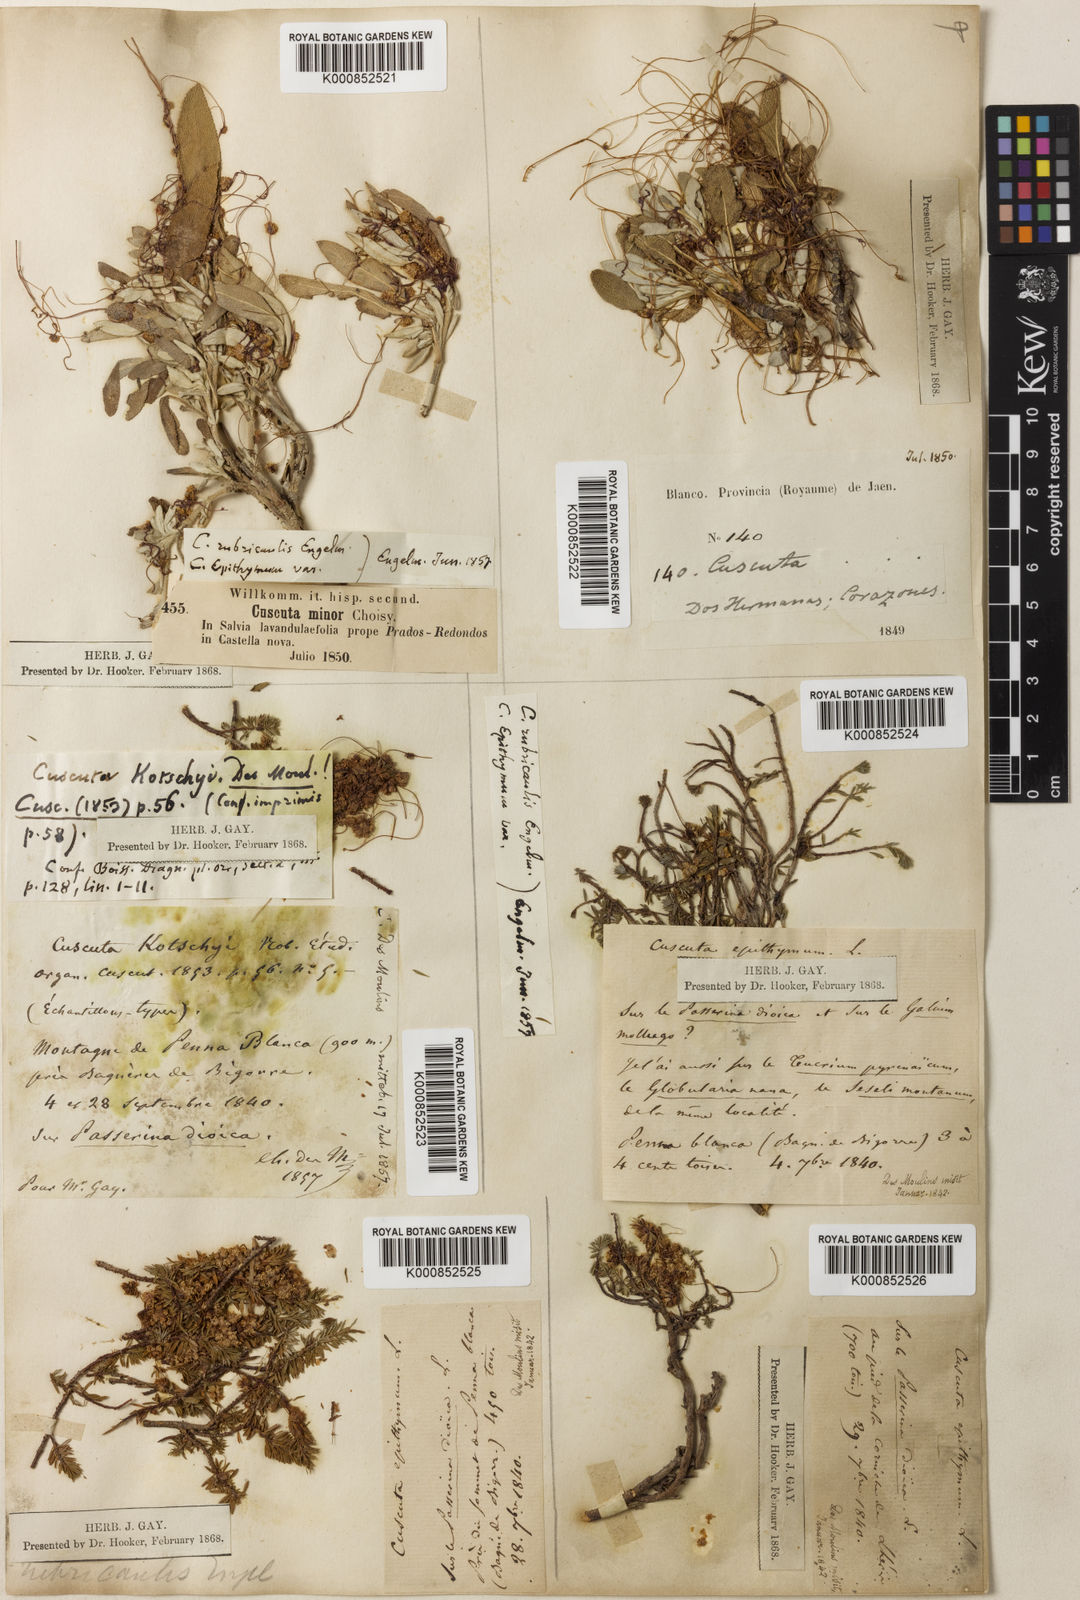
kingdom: Plantae
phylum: Tracheophyta
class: Magnoliopsida
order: Solanales
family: Convolvulaceae
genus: Cuscuta
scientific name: Cuscuta epithymum
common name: Clover dodder
